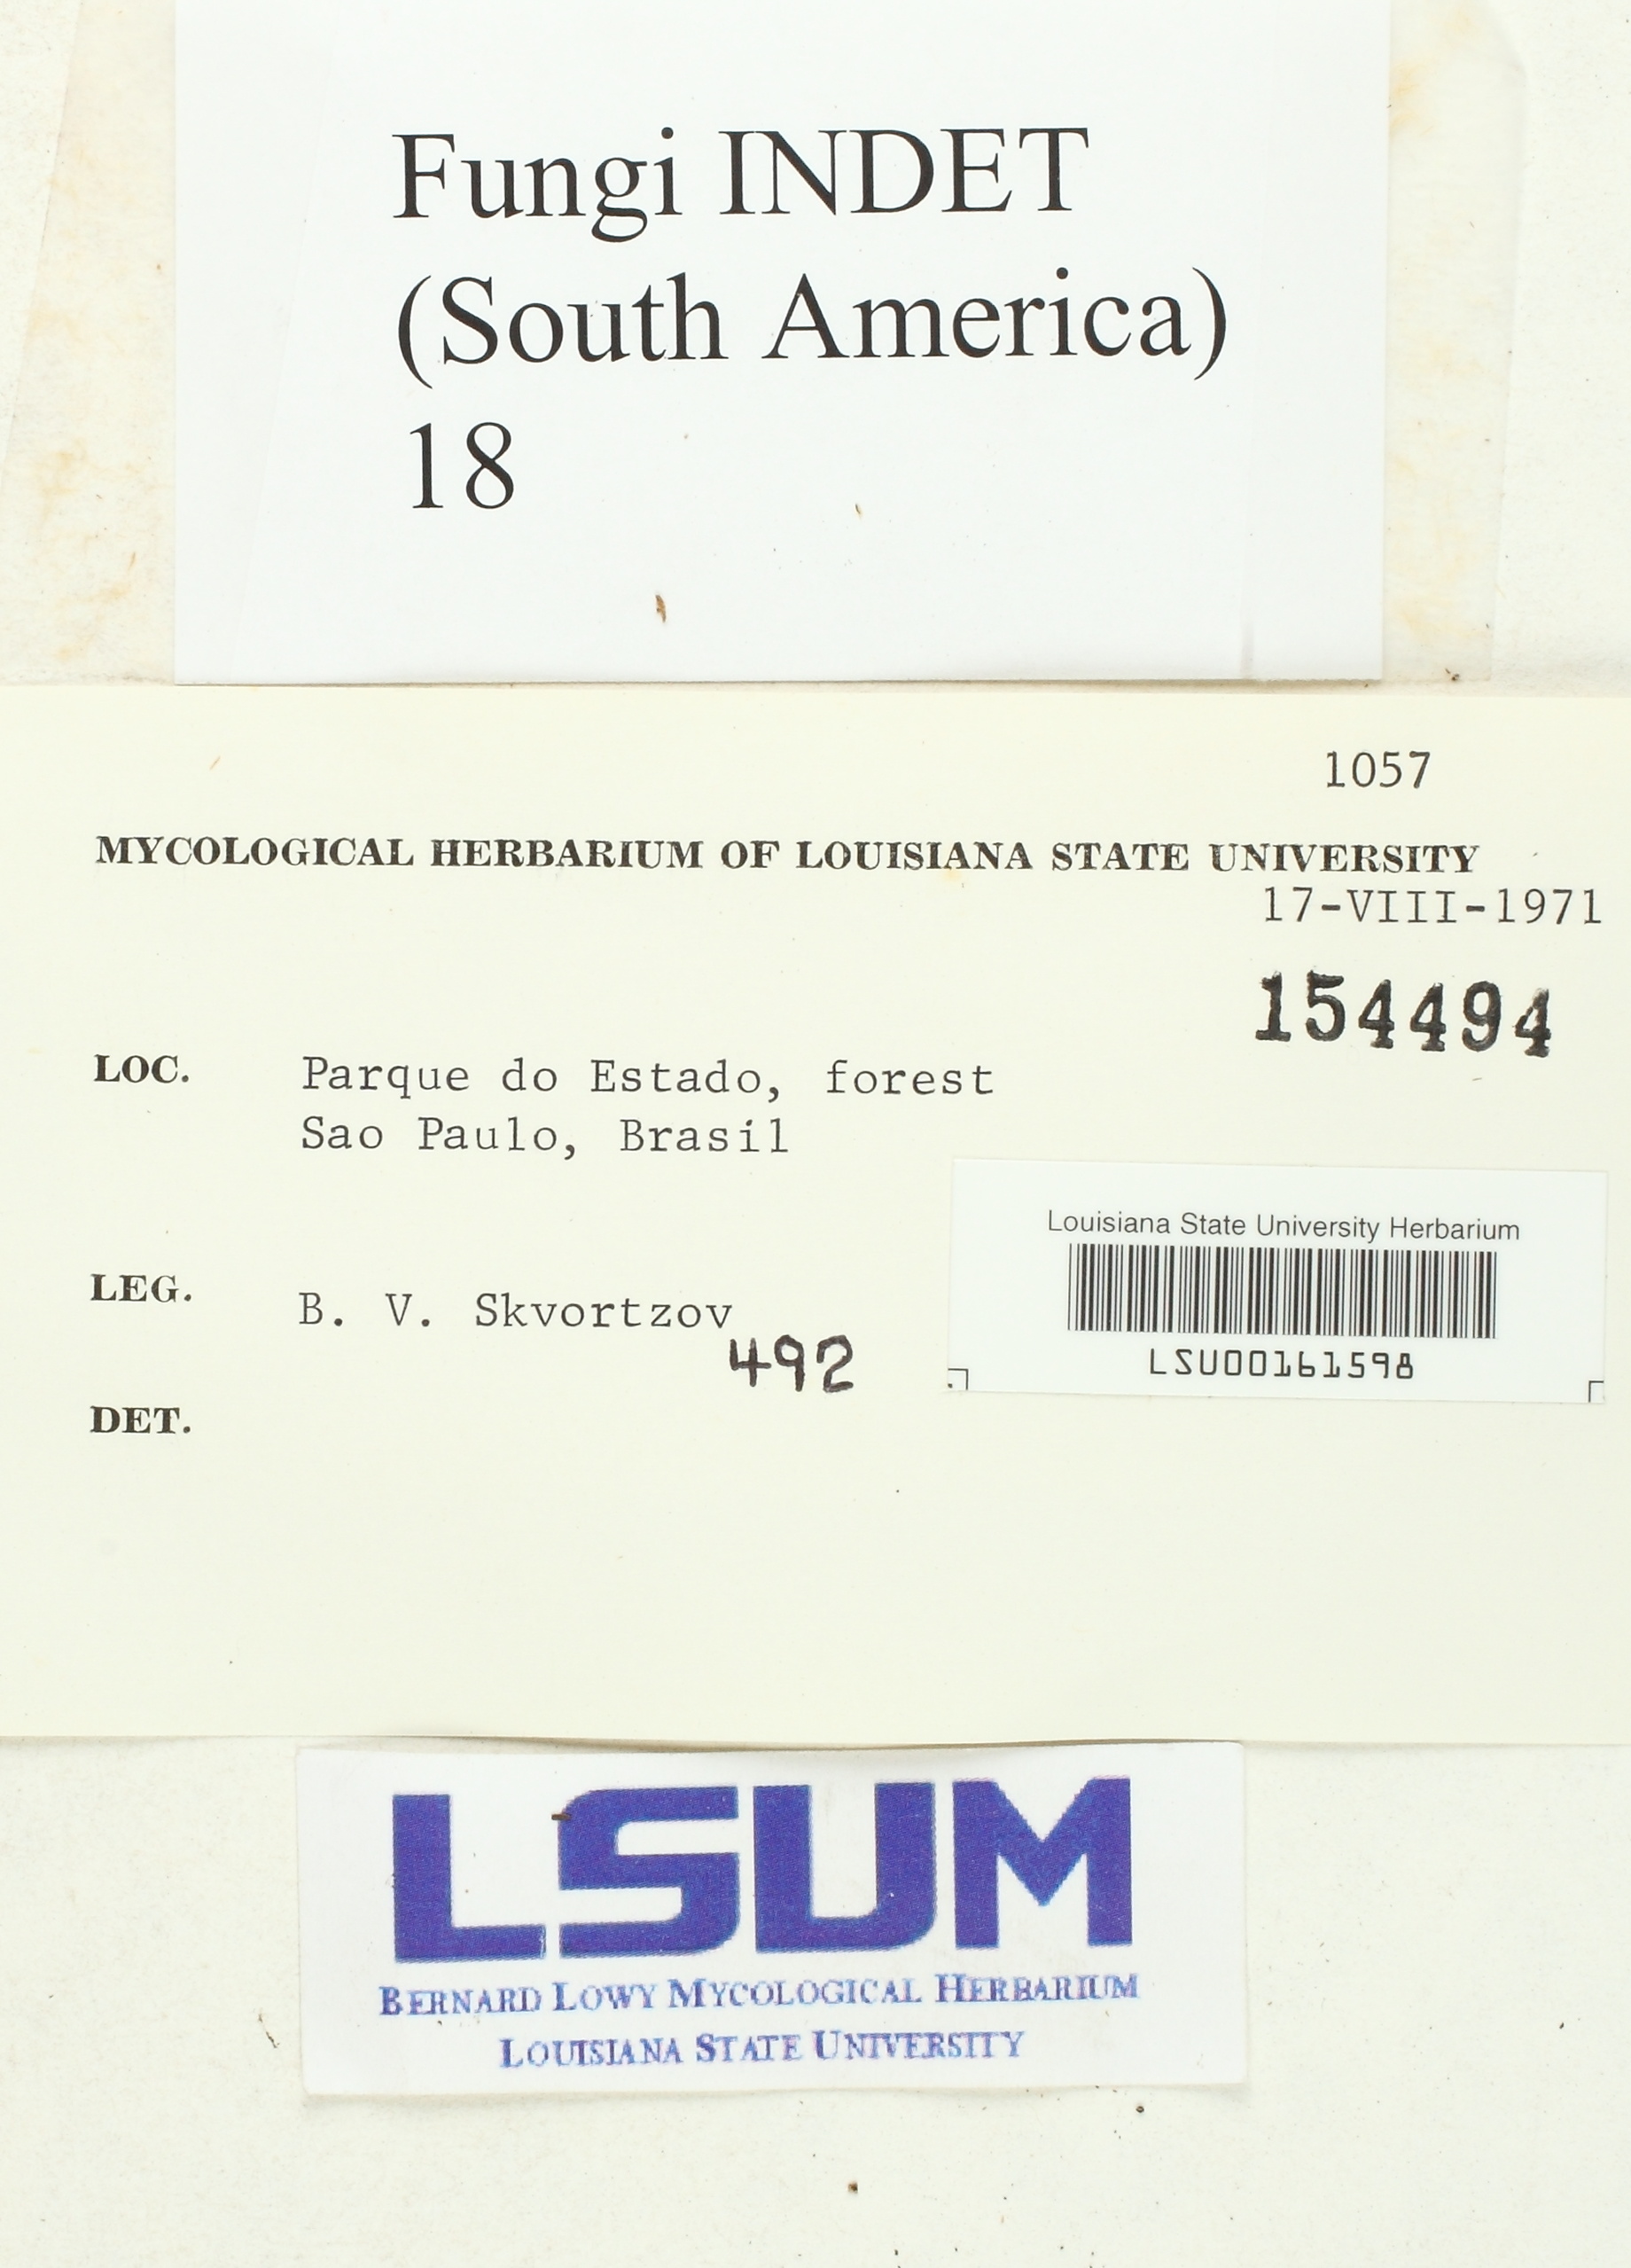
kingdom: Fungi
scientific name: Fungi
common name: Fungi
